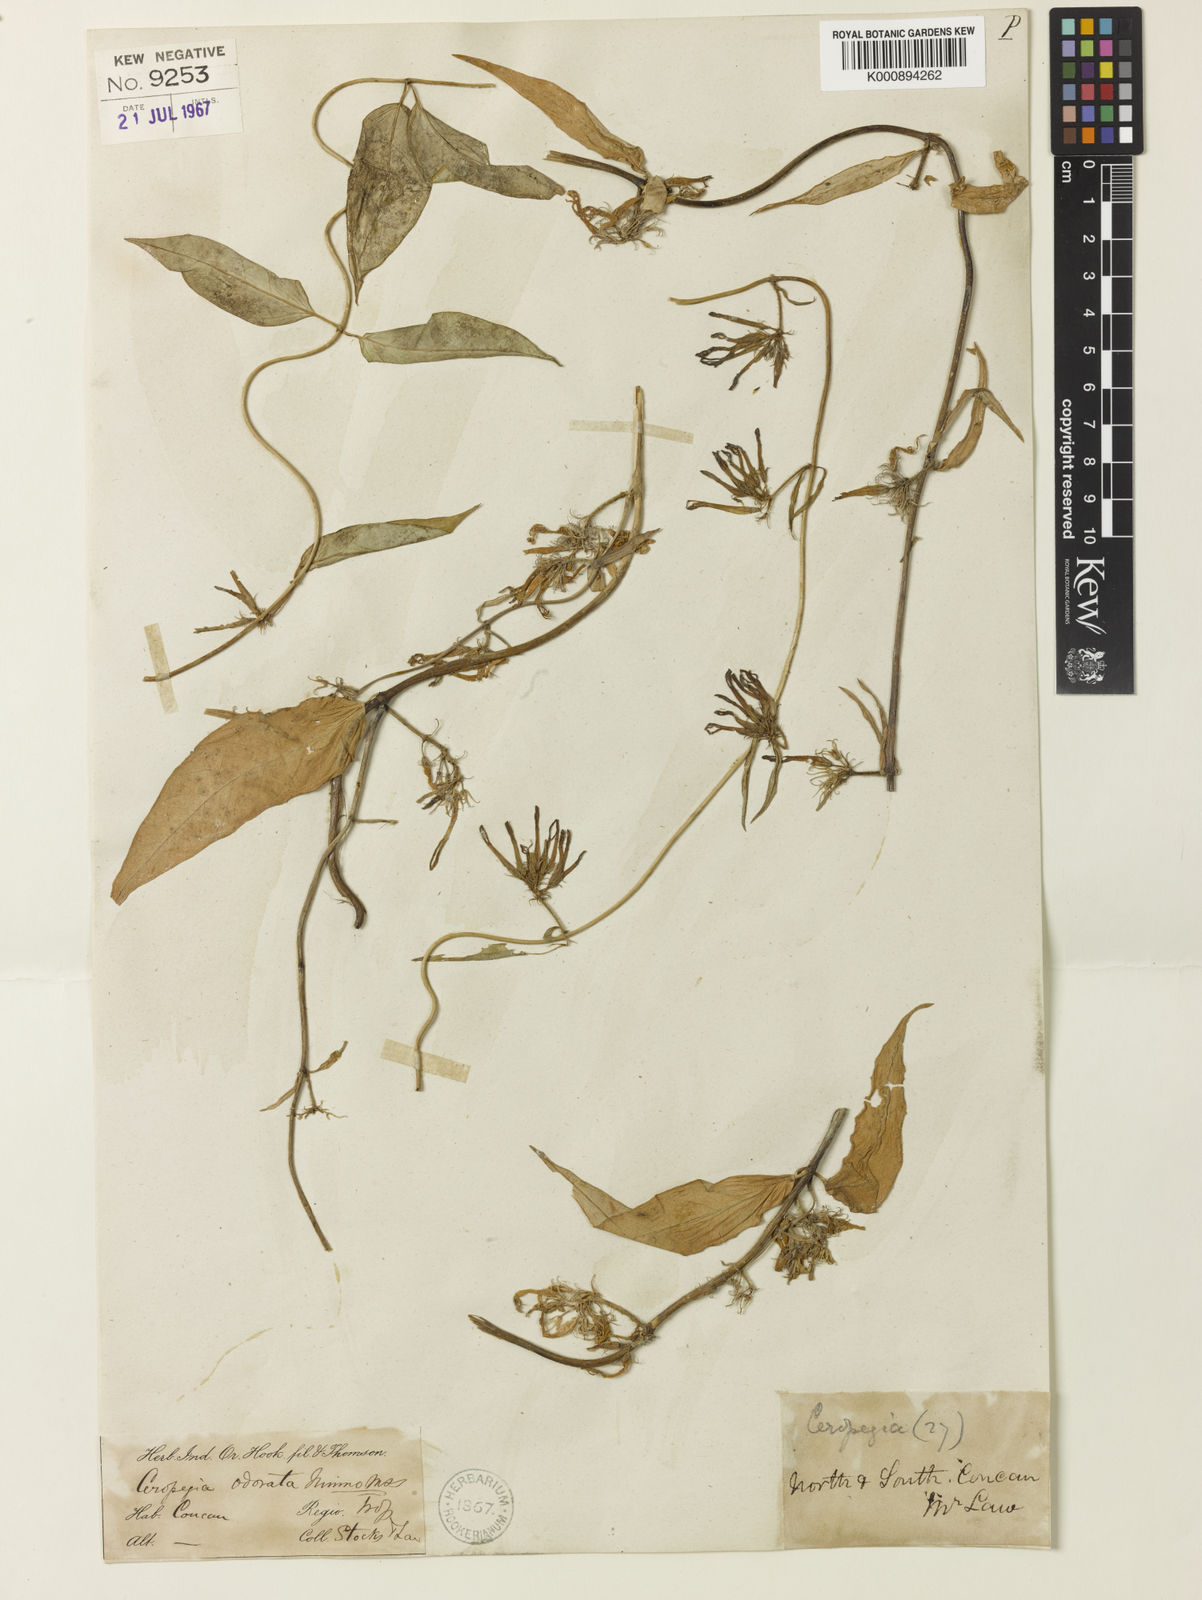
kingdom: Plantae
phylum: Tracheophyta
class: Magnoliopsida
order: Gentianales
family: Apocynaceae
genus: Ceropegia
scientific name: Ceropegia
